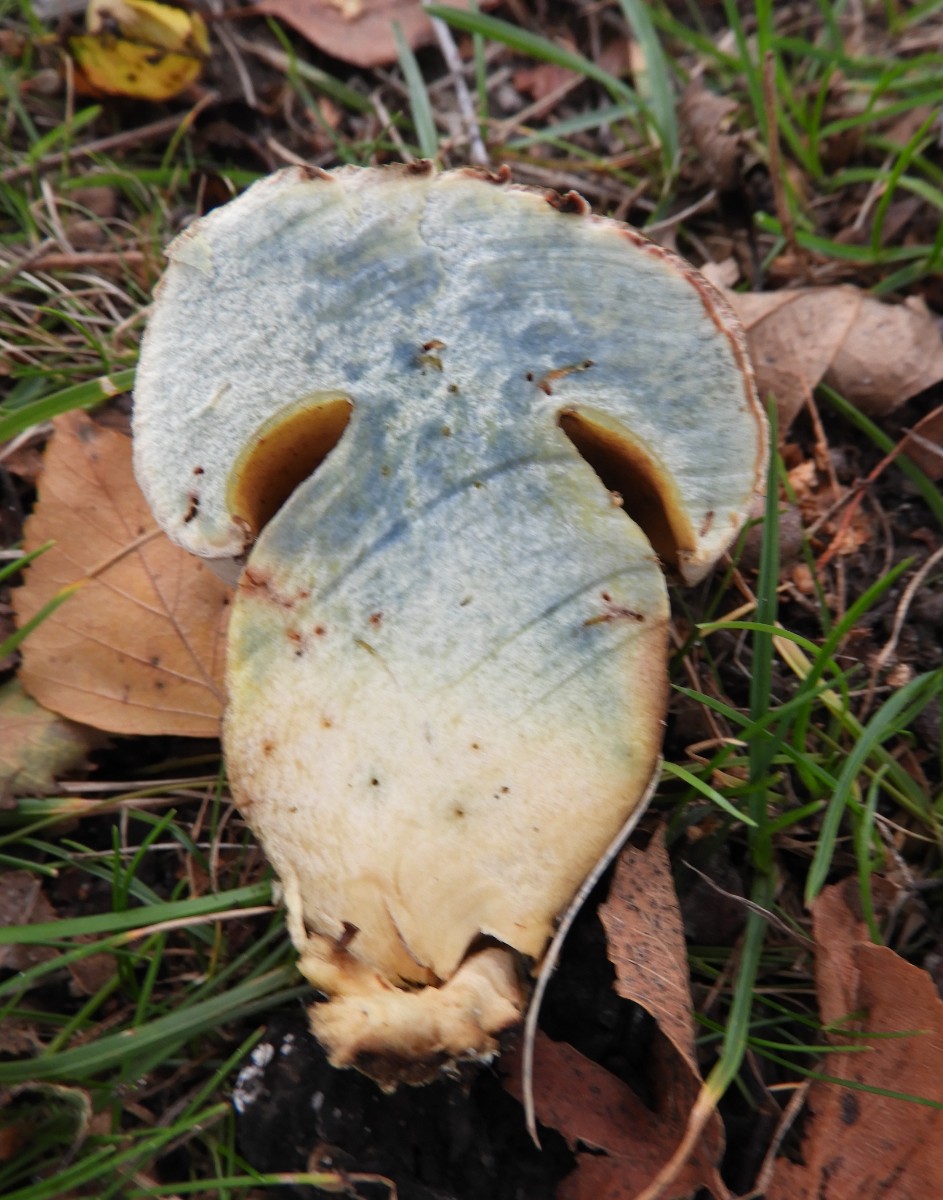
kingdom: Fungi
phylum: Basidiomycota
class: Agaricomycetes
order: Boletales
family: Boletaceae
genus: Caloboletus
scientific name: Caloboletus radicans
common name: rod-rørhat
